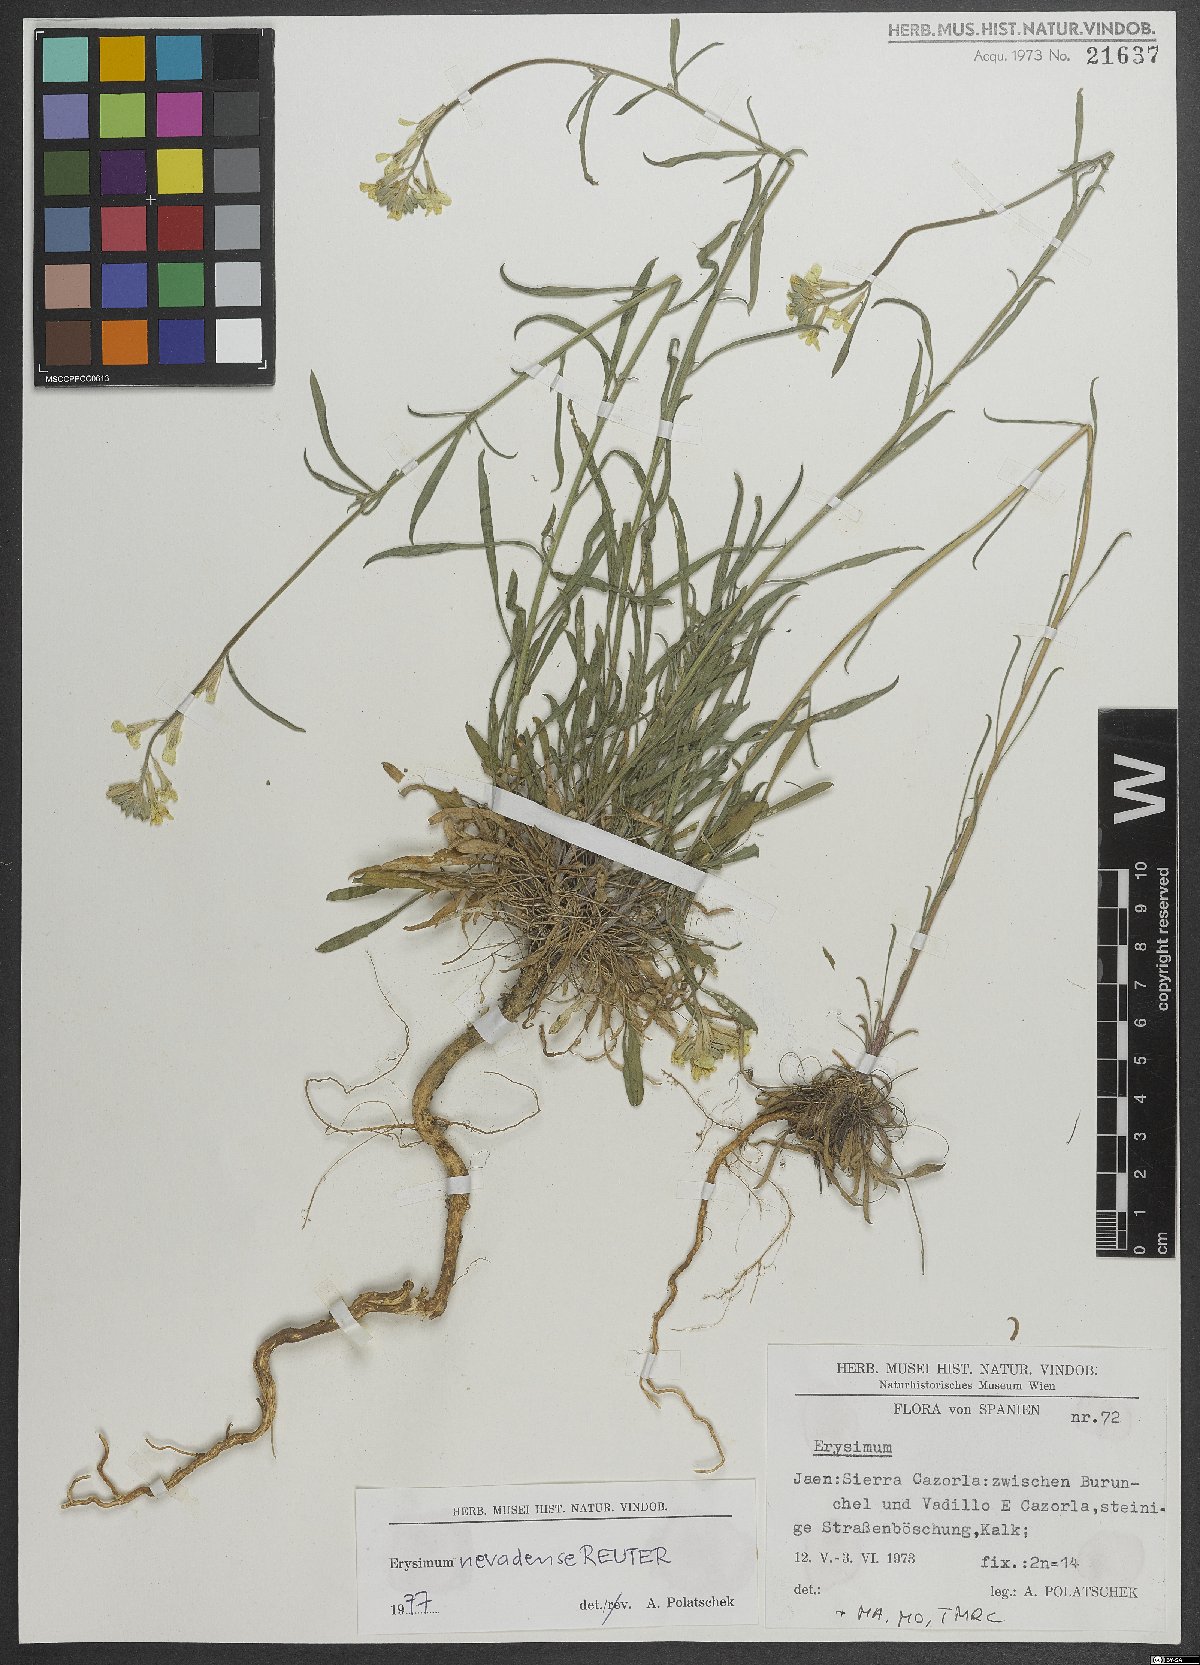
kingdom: Plantae
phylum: Tracheophyta
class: Magnoliopsida
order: Brassicales
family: Brassicaceae
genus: Erysimum
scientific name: Erysimum nevadense
